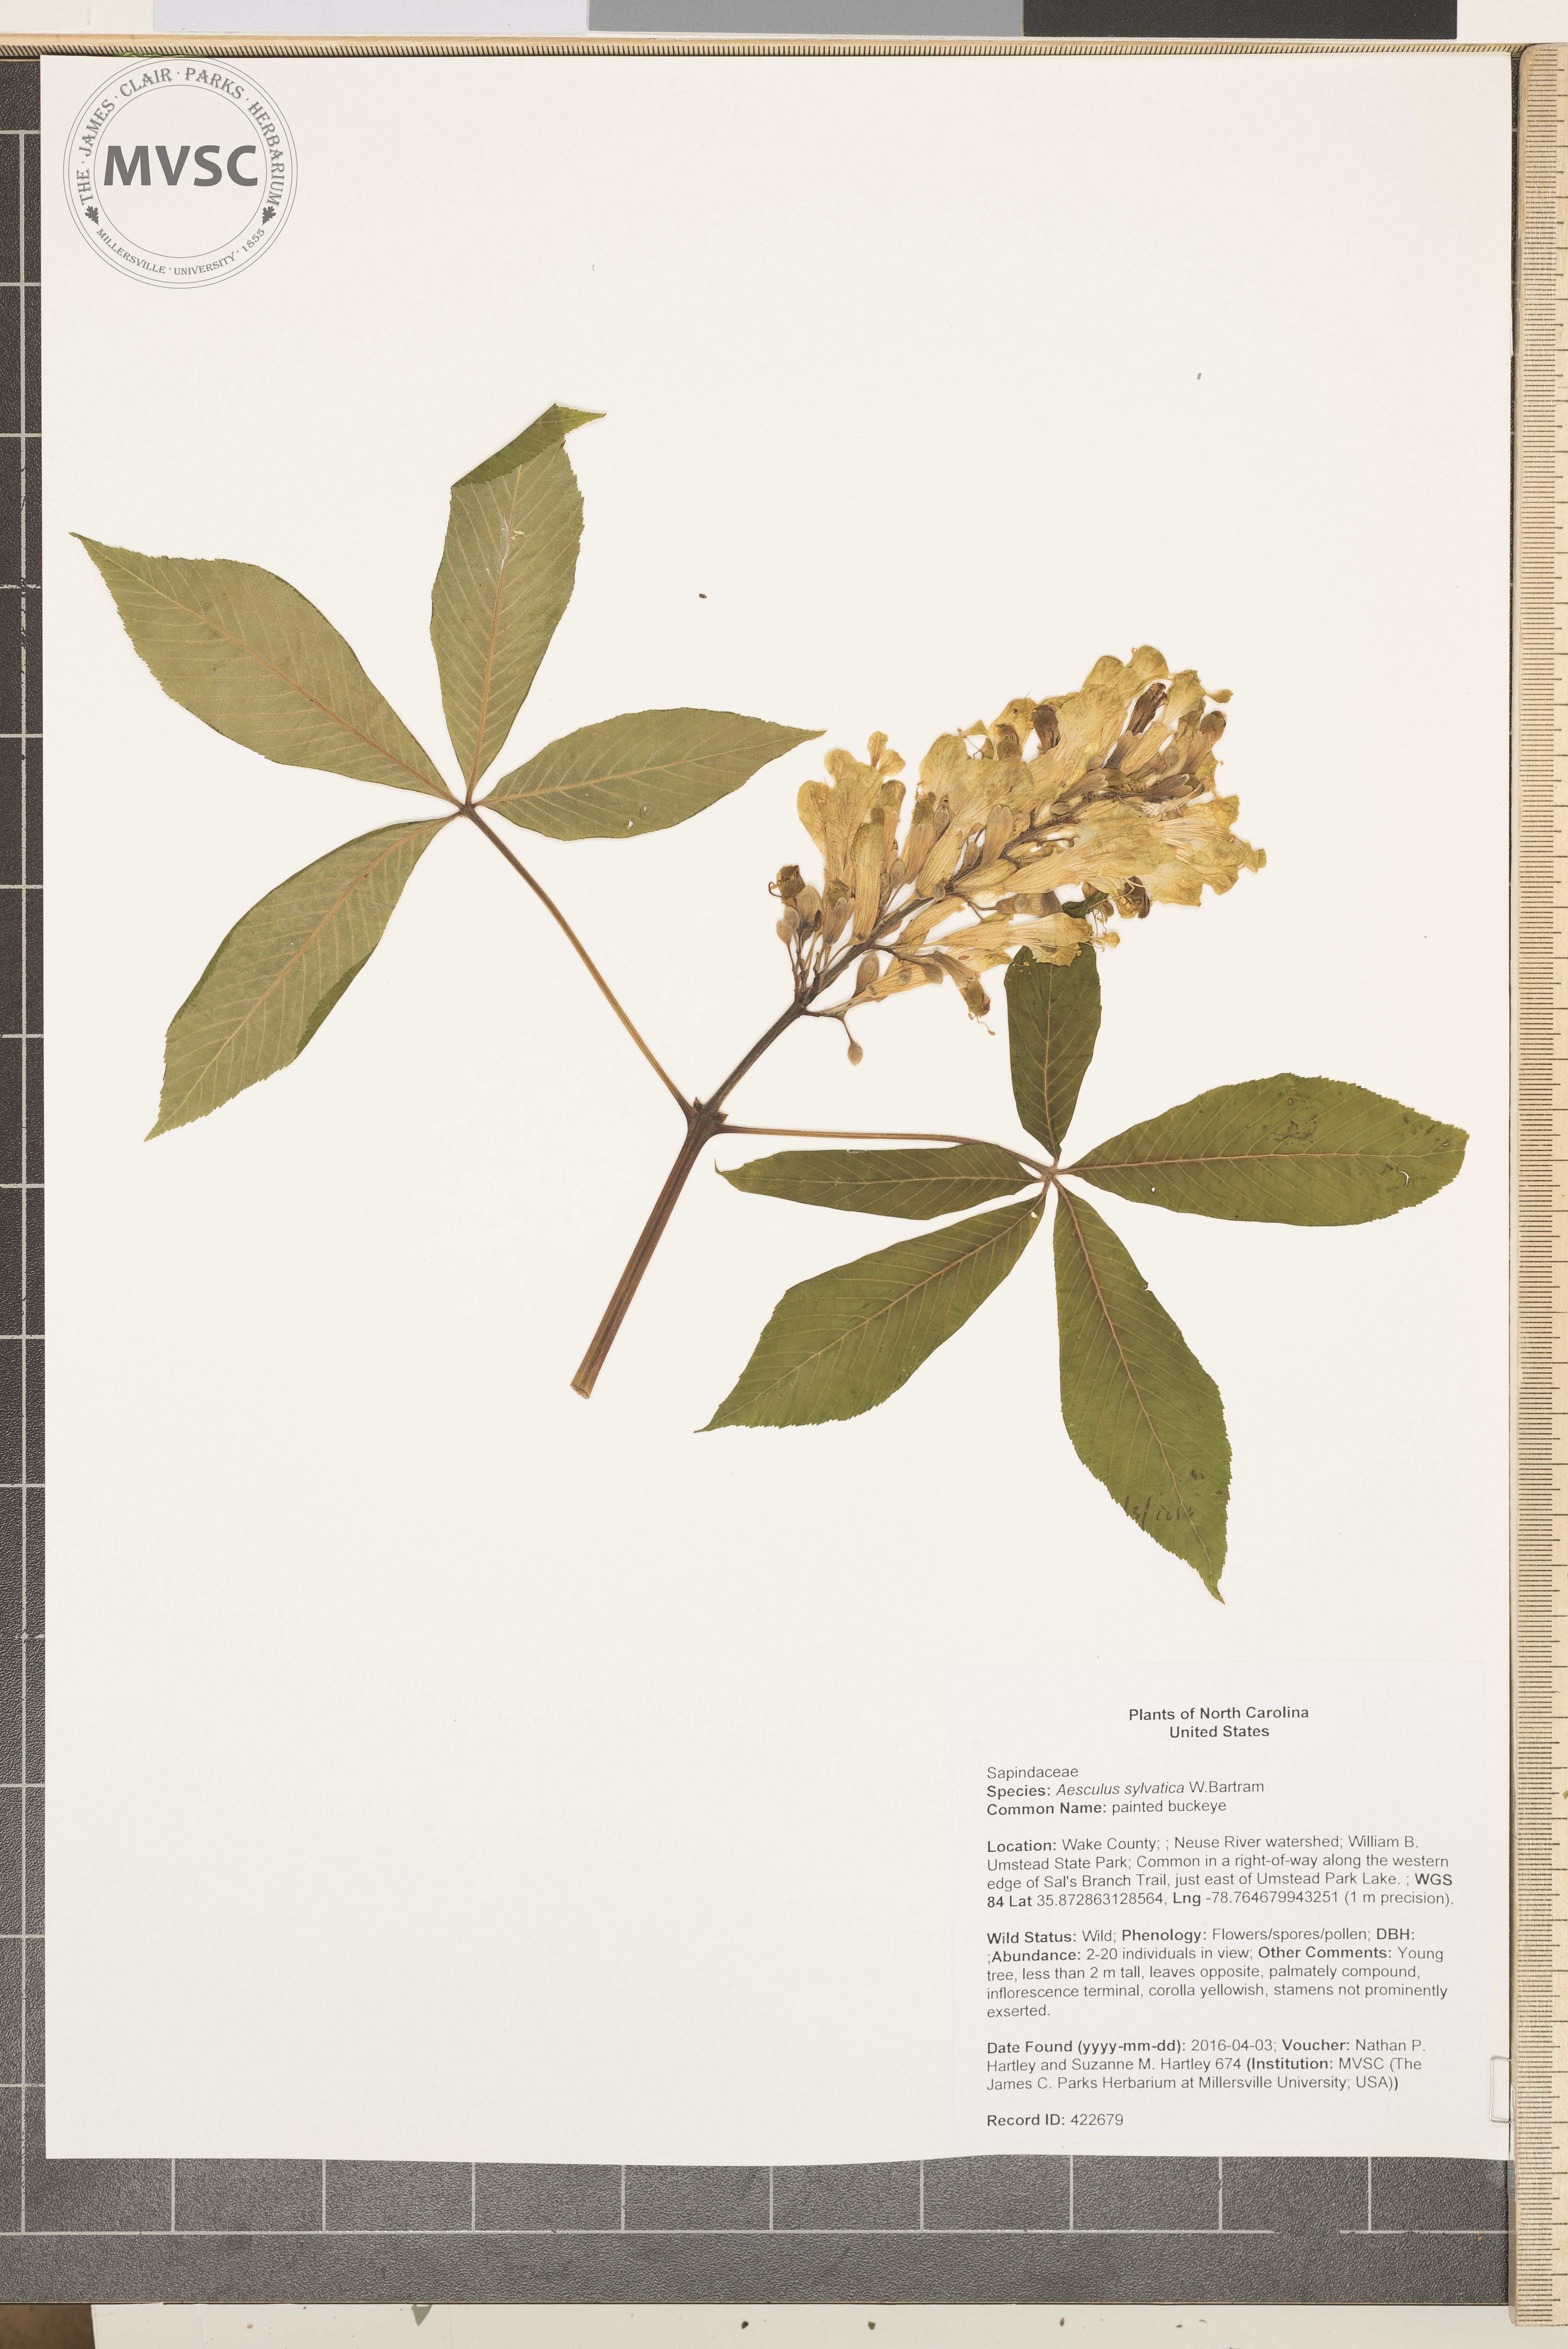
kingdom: Plantae
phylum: Tracheophyta
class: Magnoliopsida
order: Sapindales
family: Sapindaceae
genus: Aesculus
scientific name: Aesculus sylvatica
